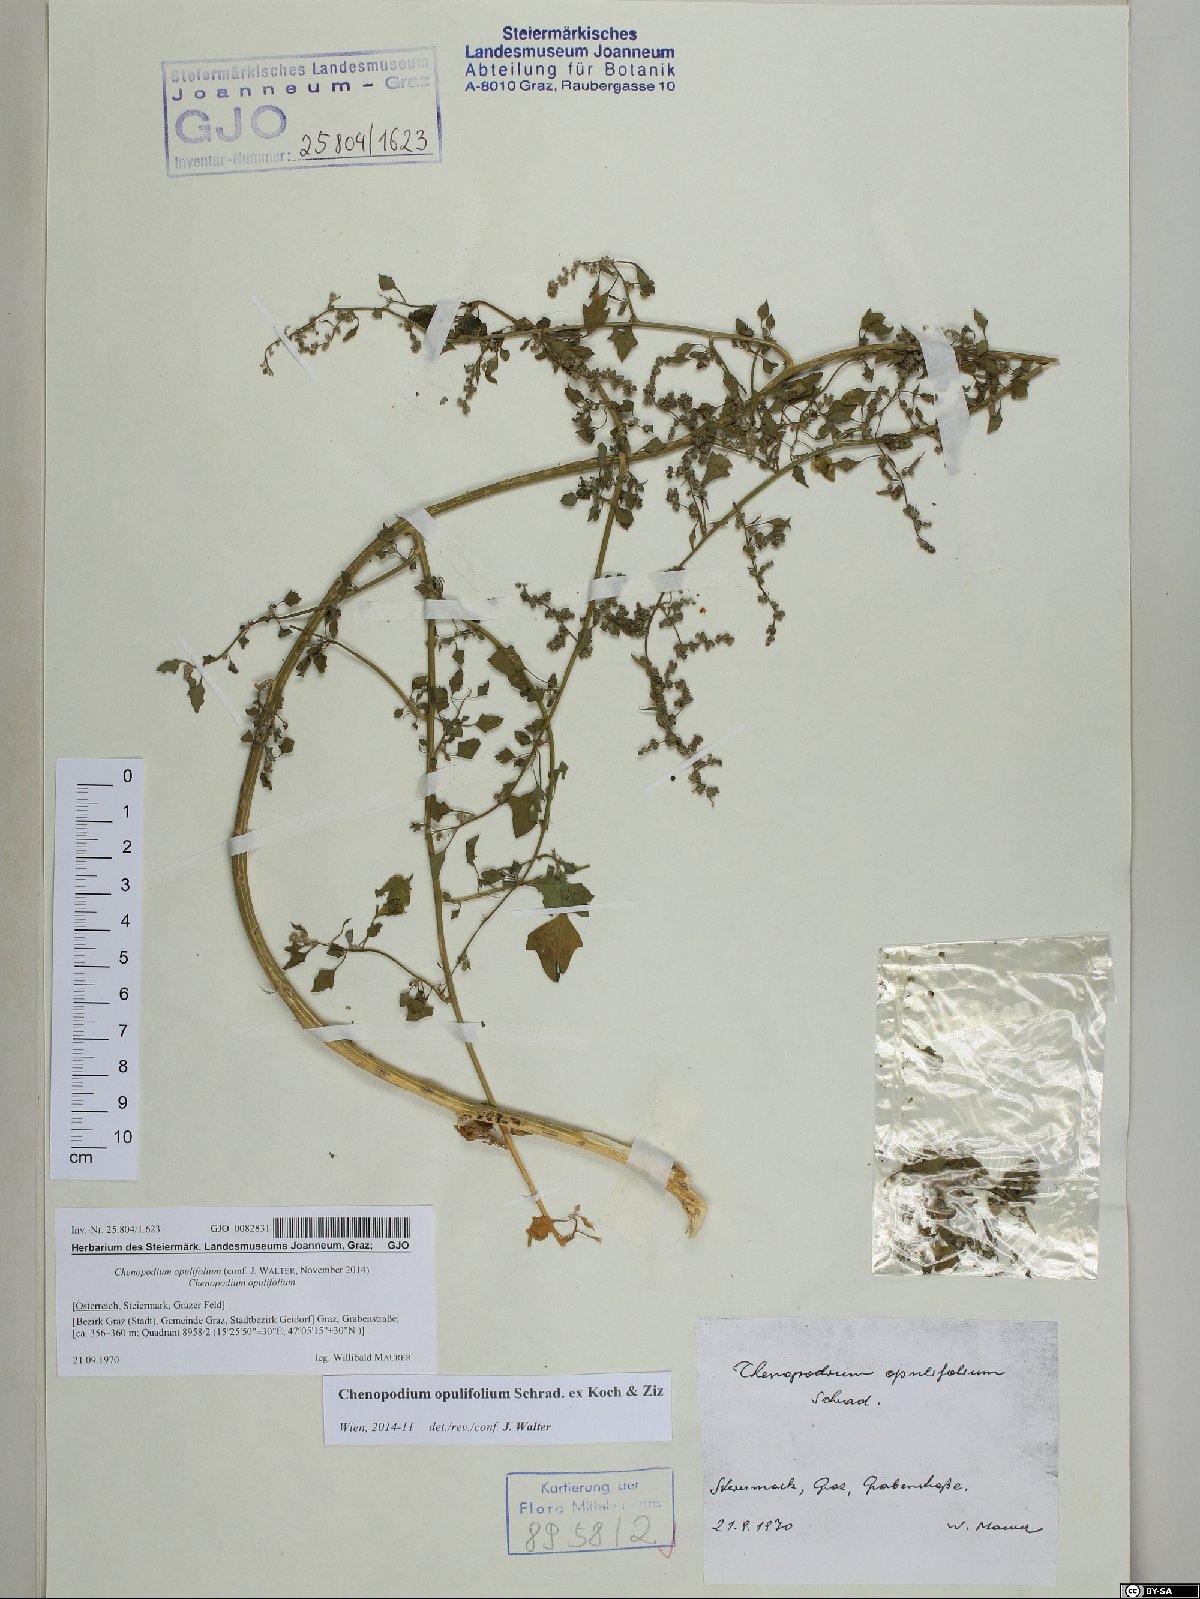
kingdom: Plantae
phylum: Tracheophyta
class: Magnoliopsida
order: Caryophyllales
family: Amaranthaceae
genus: Chenopodium
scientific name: Chenopodium opulifolium
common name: Grey goosefoot
